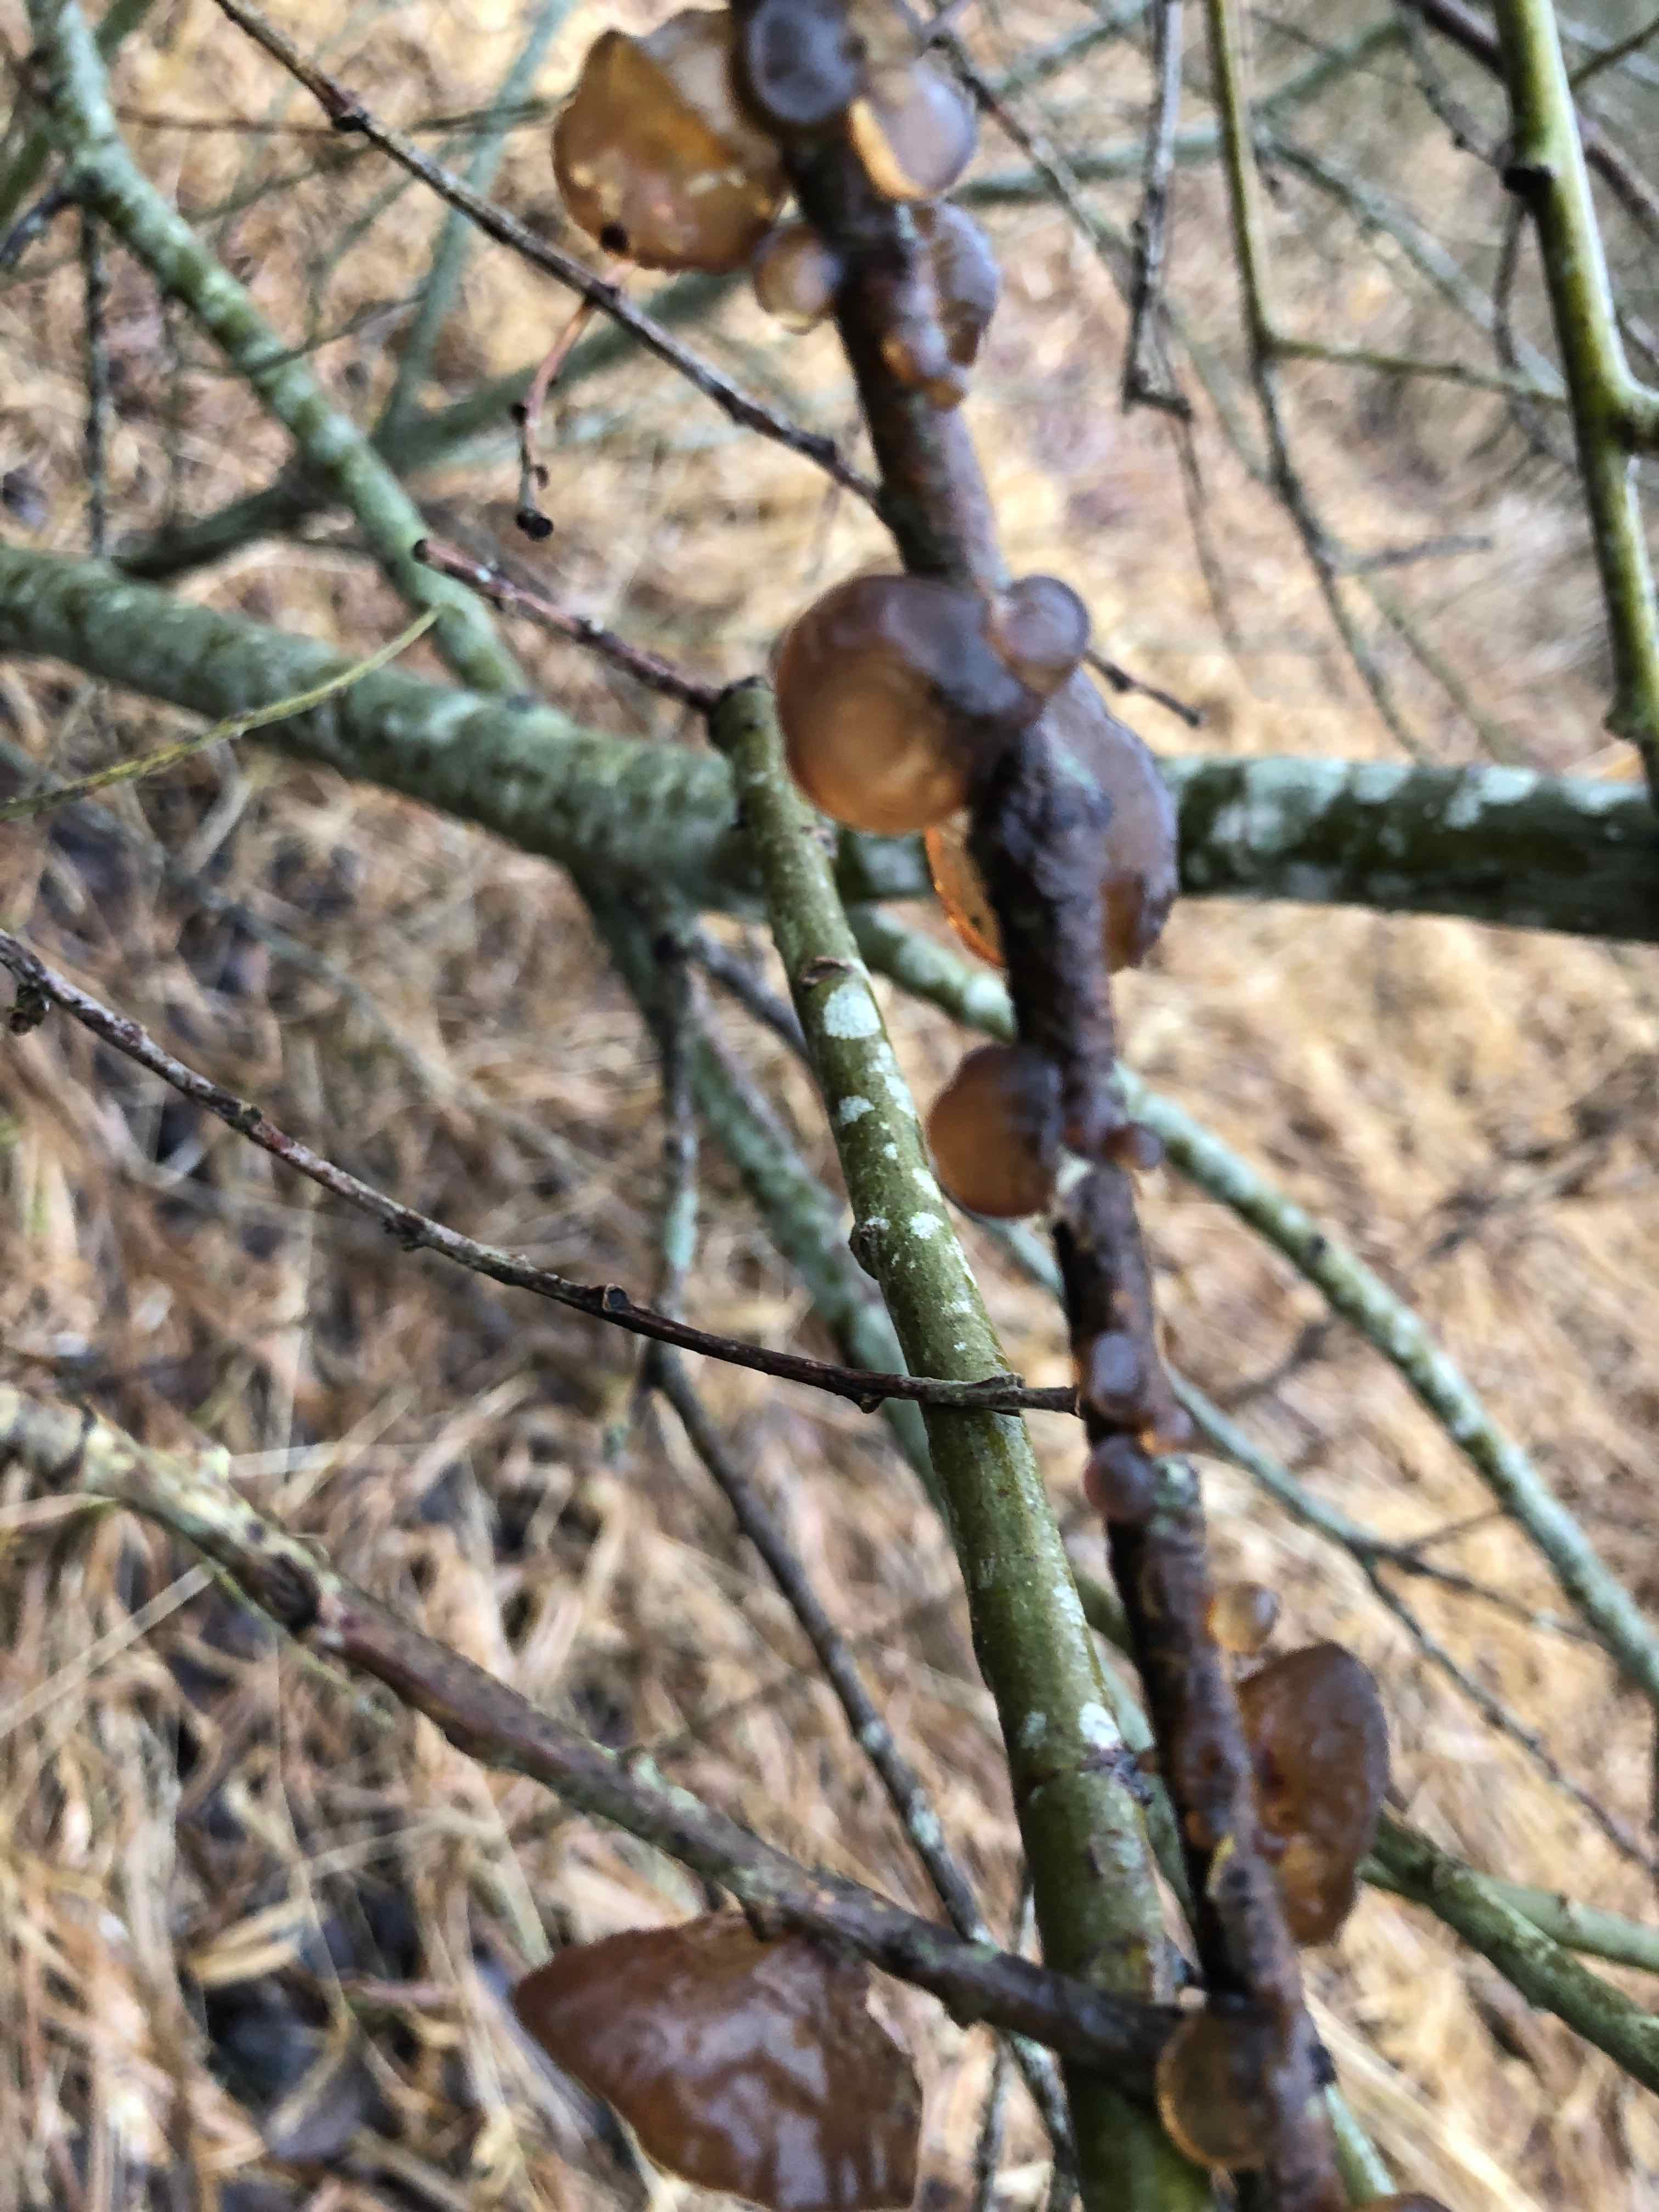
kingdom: Fungi
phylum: Basidiomycota
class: Agaricomycetes
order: Auriculariales
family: Auriculariaceae
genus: Exidia
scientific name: Exidia recisa
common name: pile-bævretop
